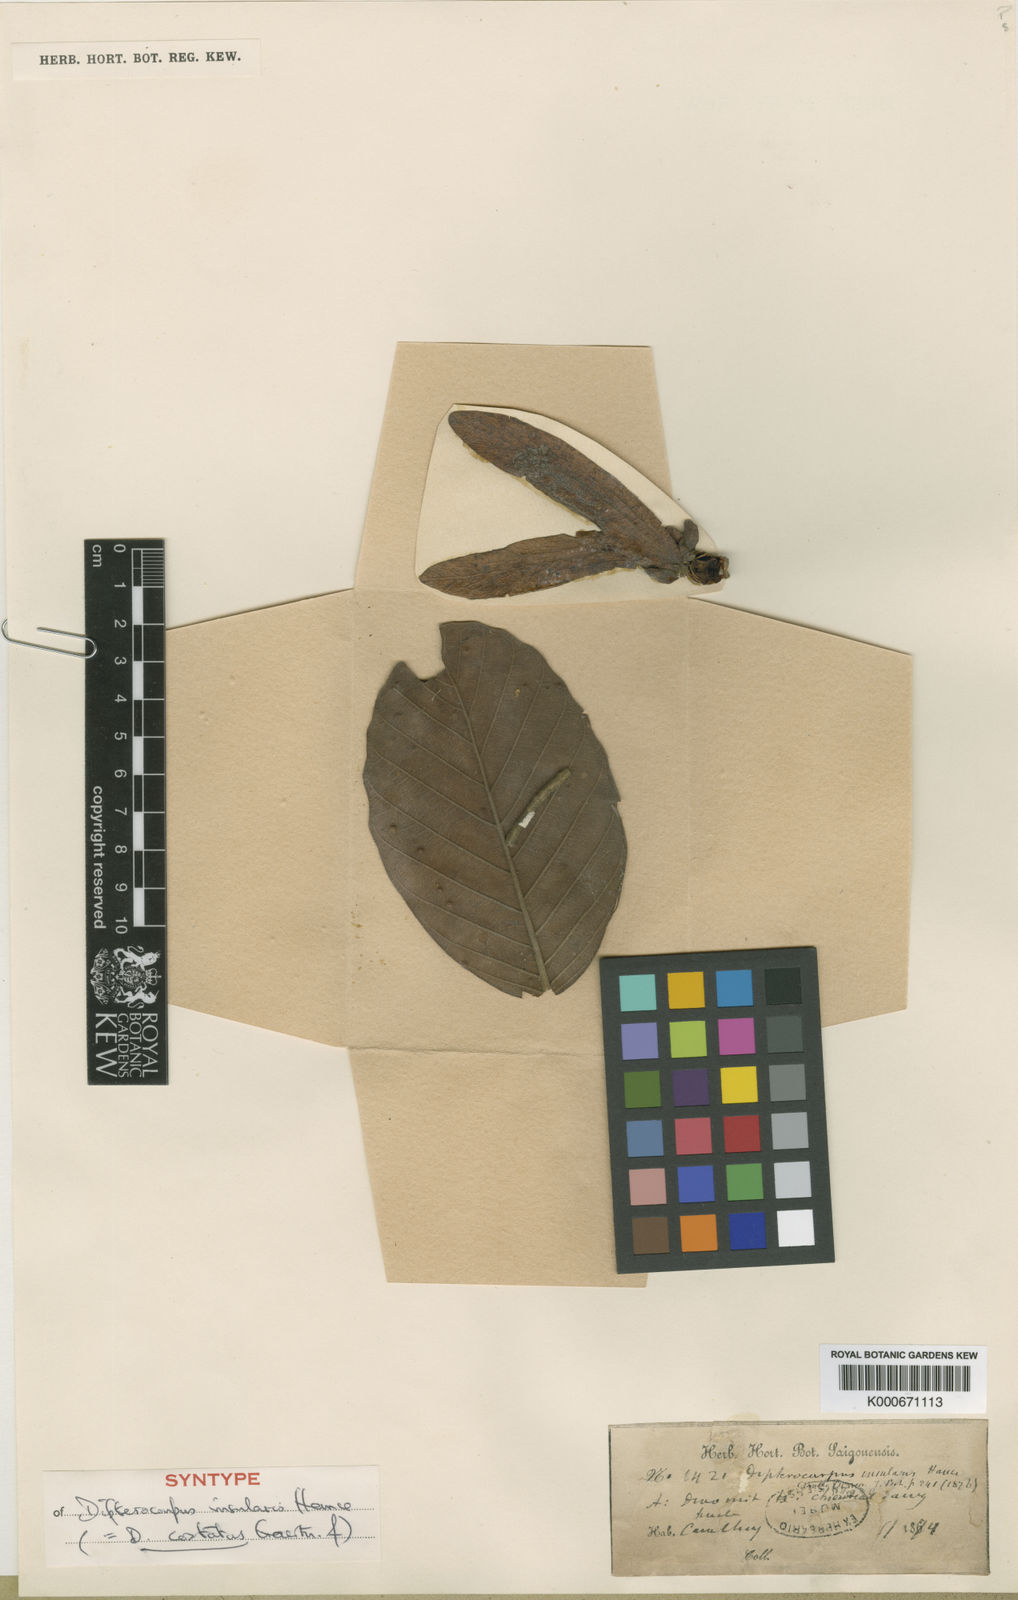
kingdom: Plantae
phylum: Tracheophyta
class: Magnoliopsida
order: Malvales
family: Dipterocarpaceae
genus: Dipterocarpus
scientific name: Dipterocarpus costatus
